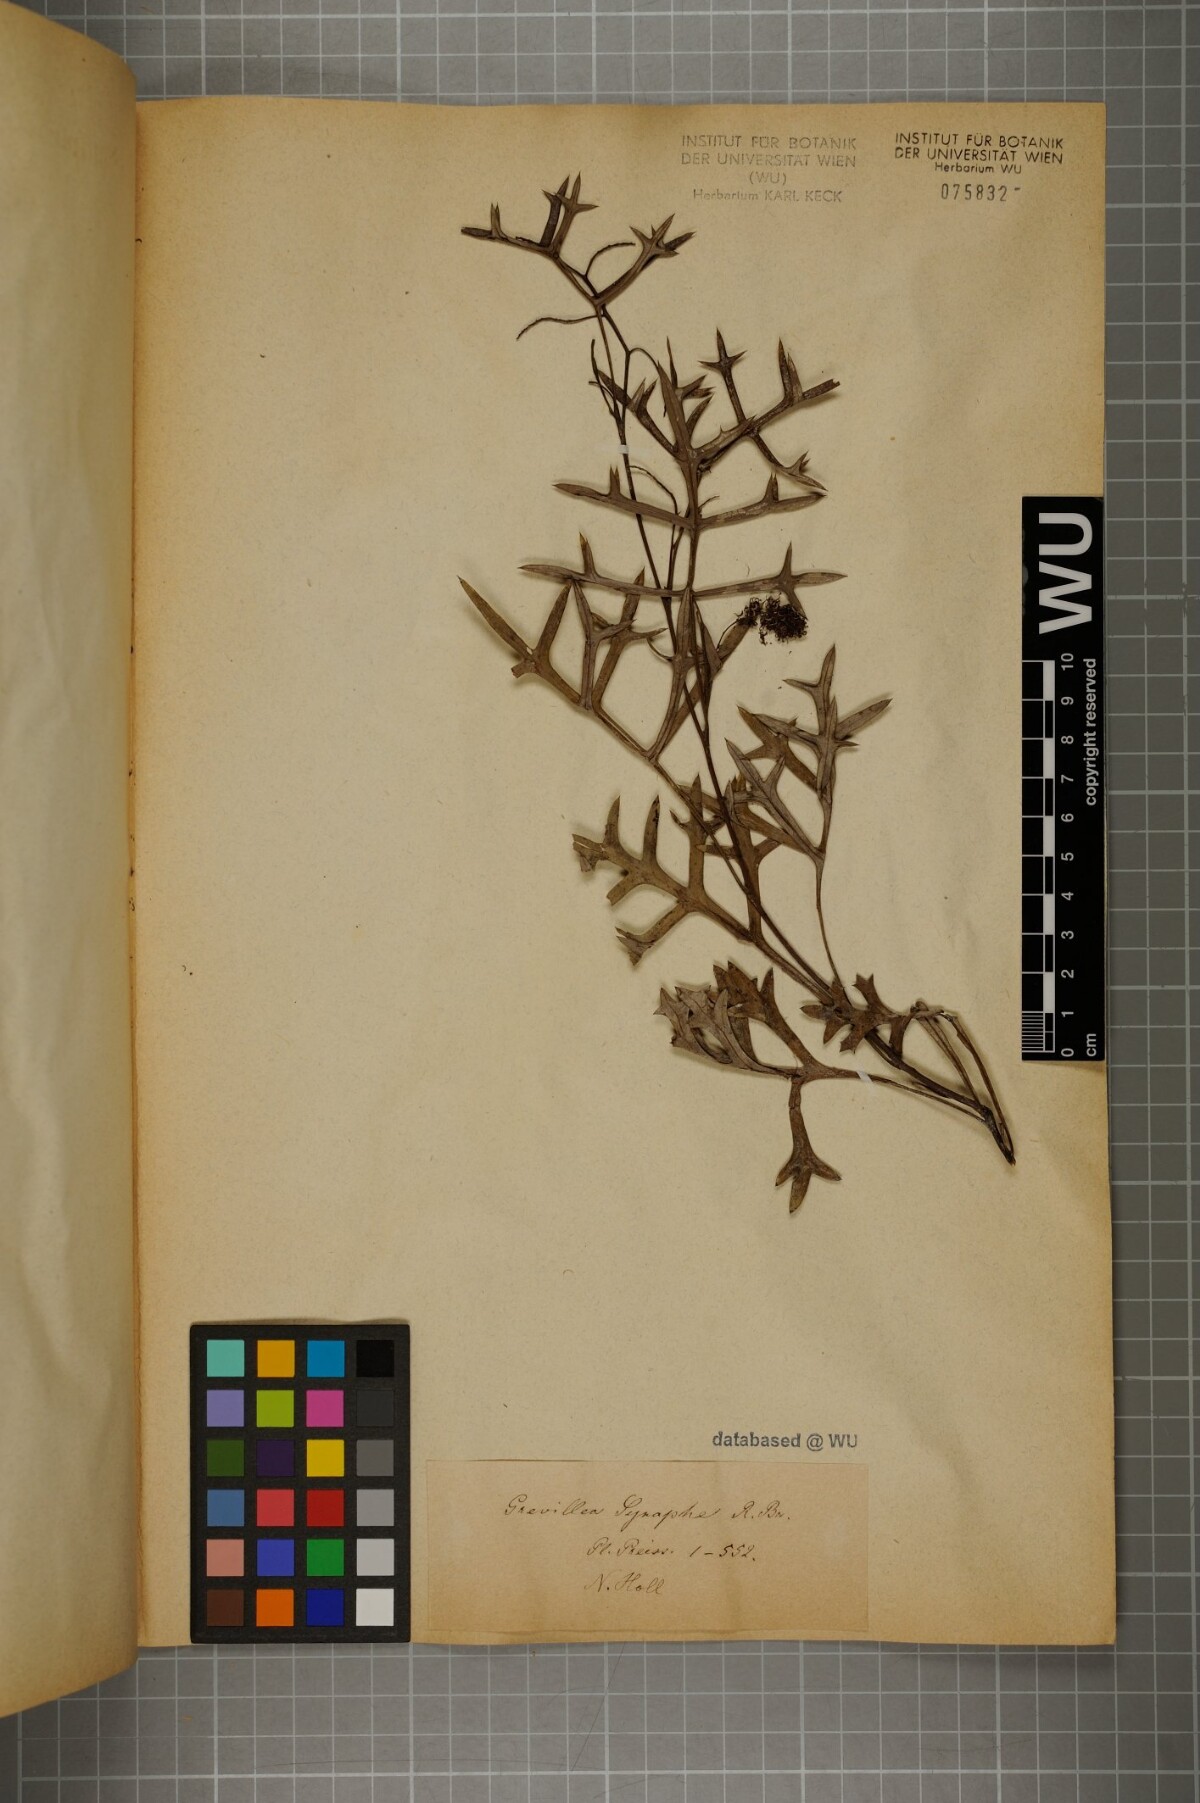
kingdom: Plantae
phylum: Tracheophyta
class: Magnoliopsida
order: Proteales
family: Proteaceae
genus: Grevillea
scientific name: Grevillea synaphea
